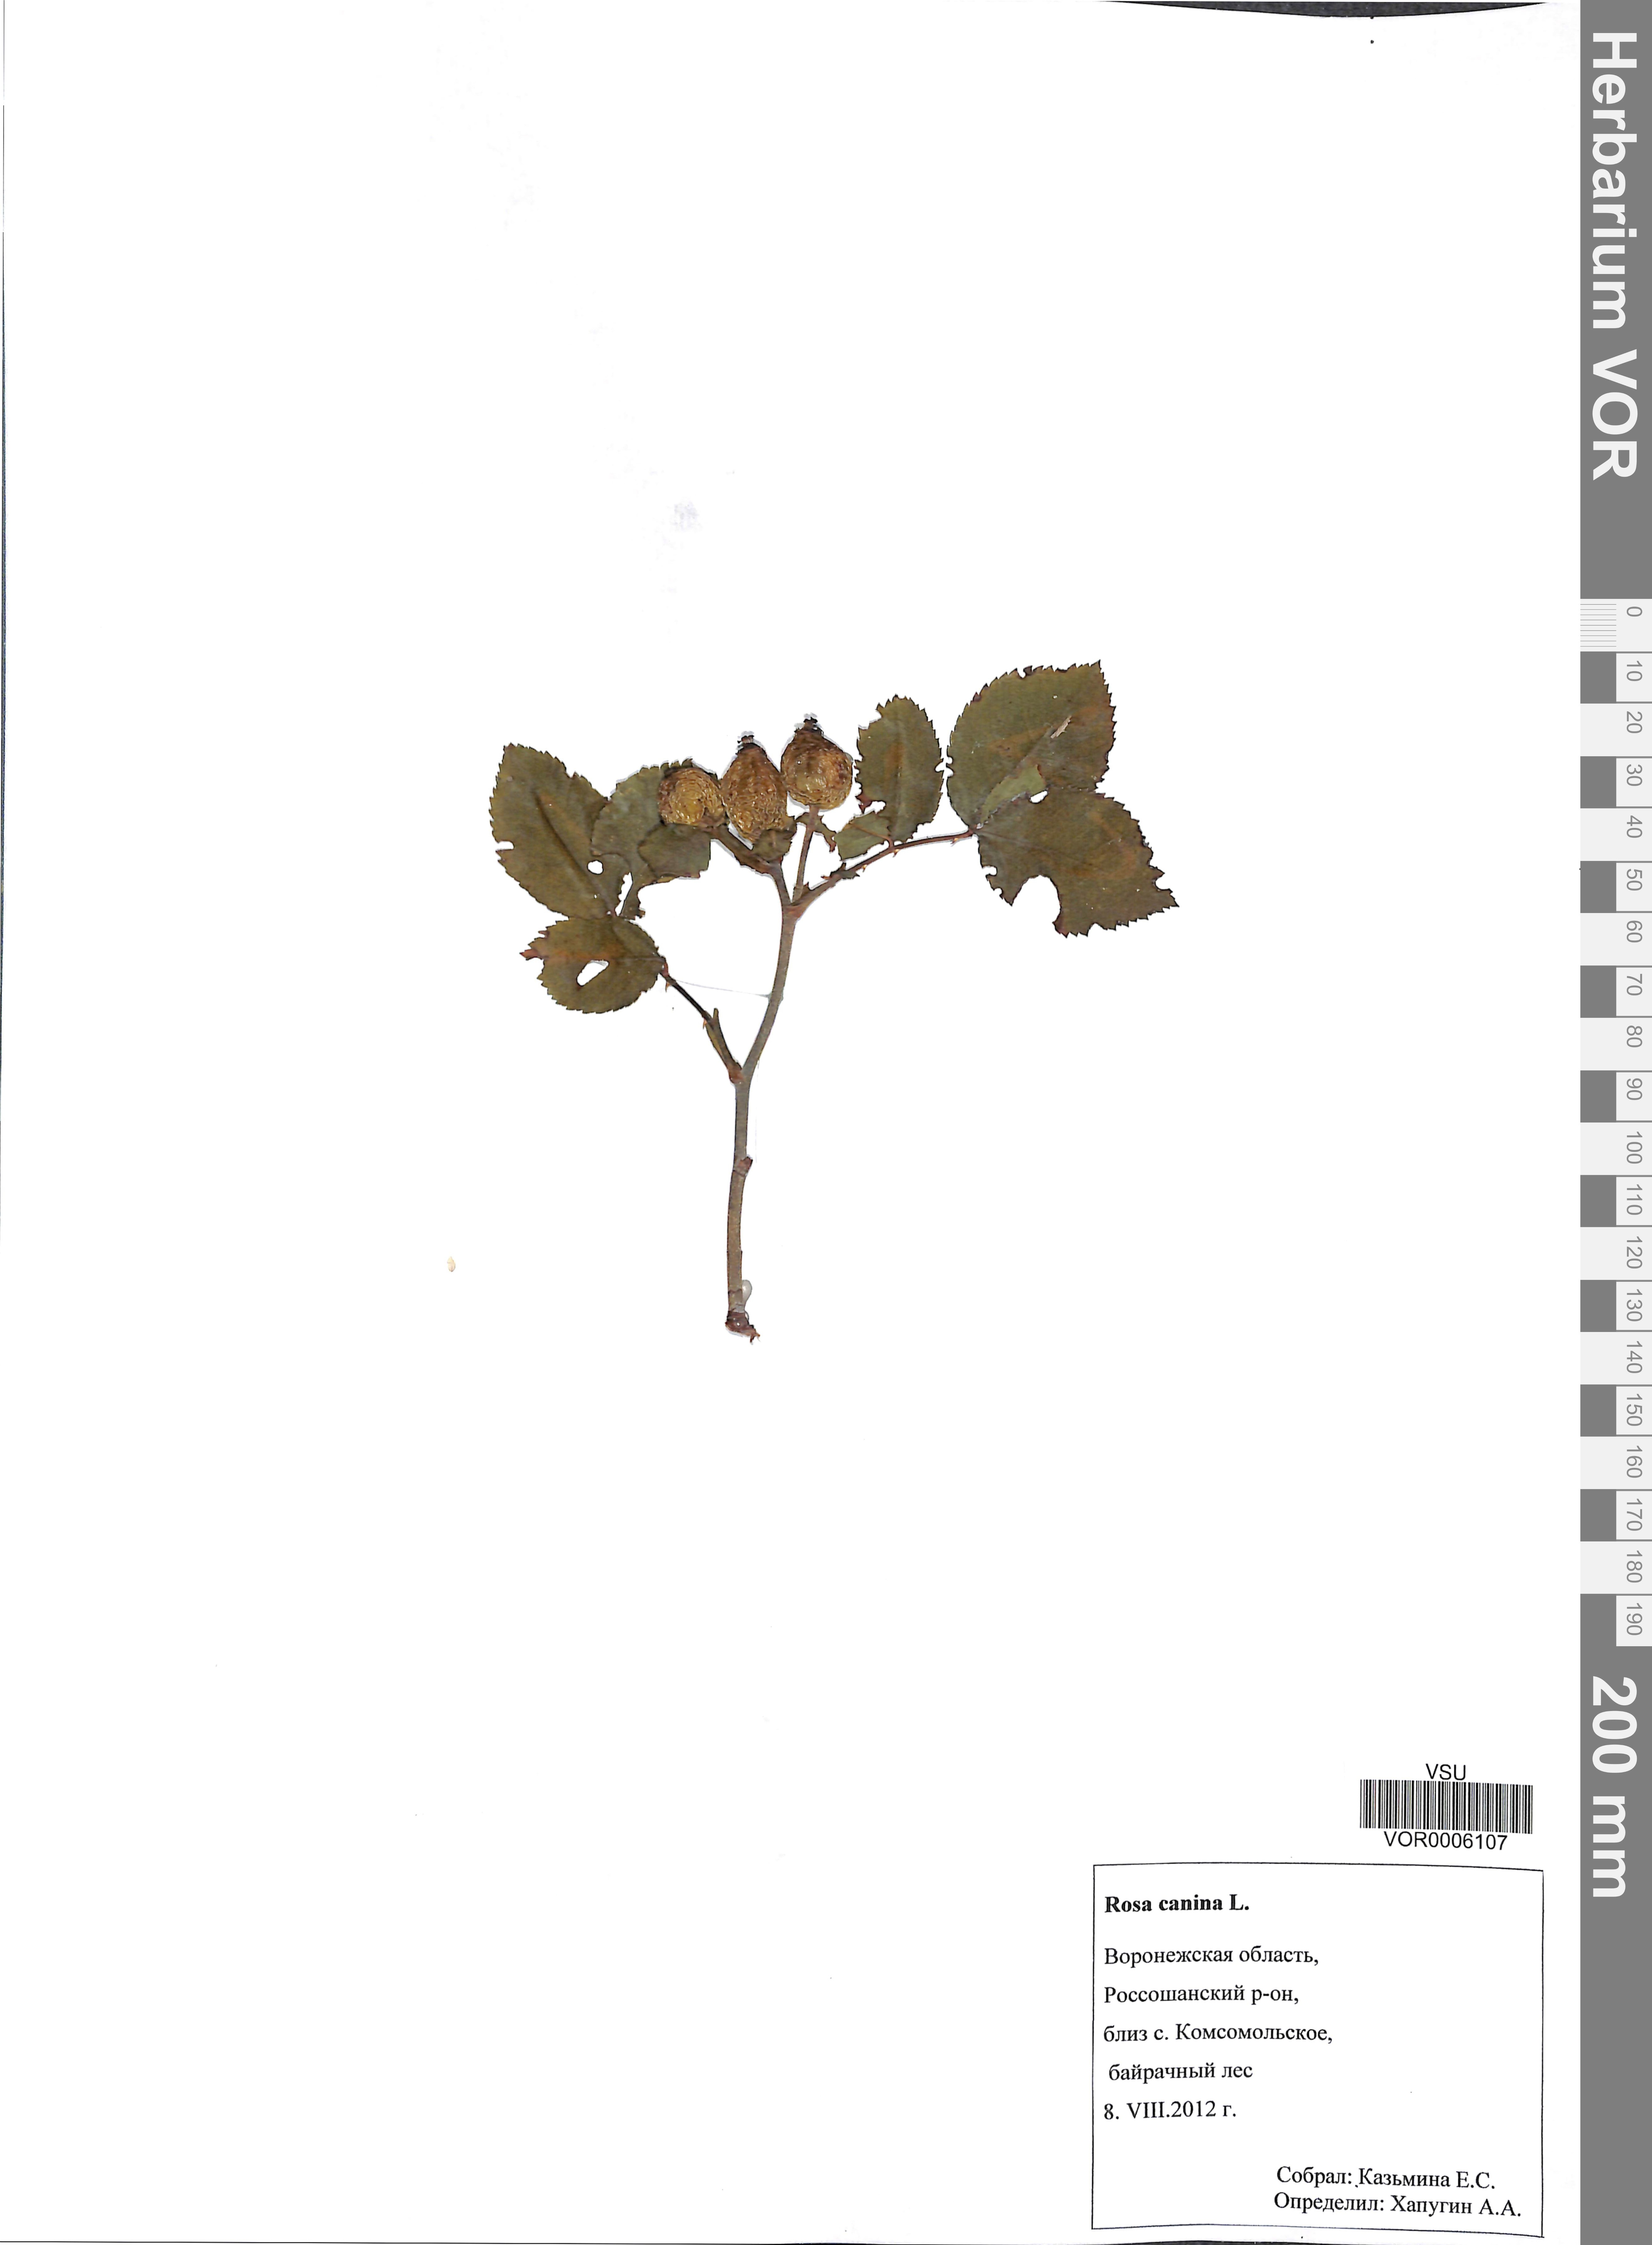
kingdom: Plantae
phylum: Tracheophyta
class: Magnoliopsida
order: Rosales
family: Rosaceae
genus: Rosa
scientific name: Rosa canina
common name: Dog rose
